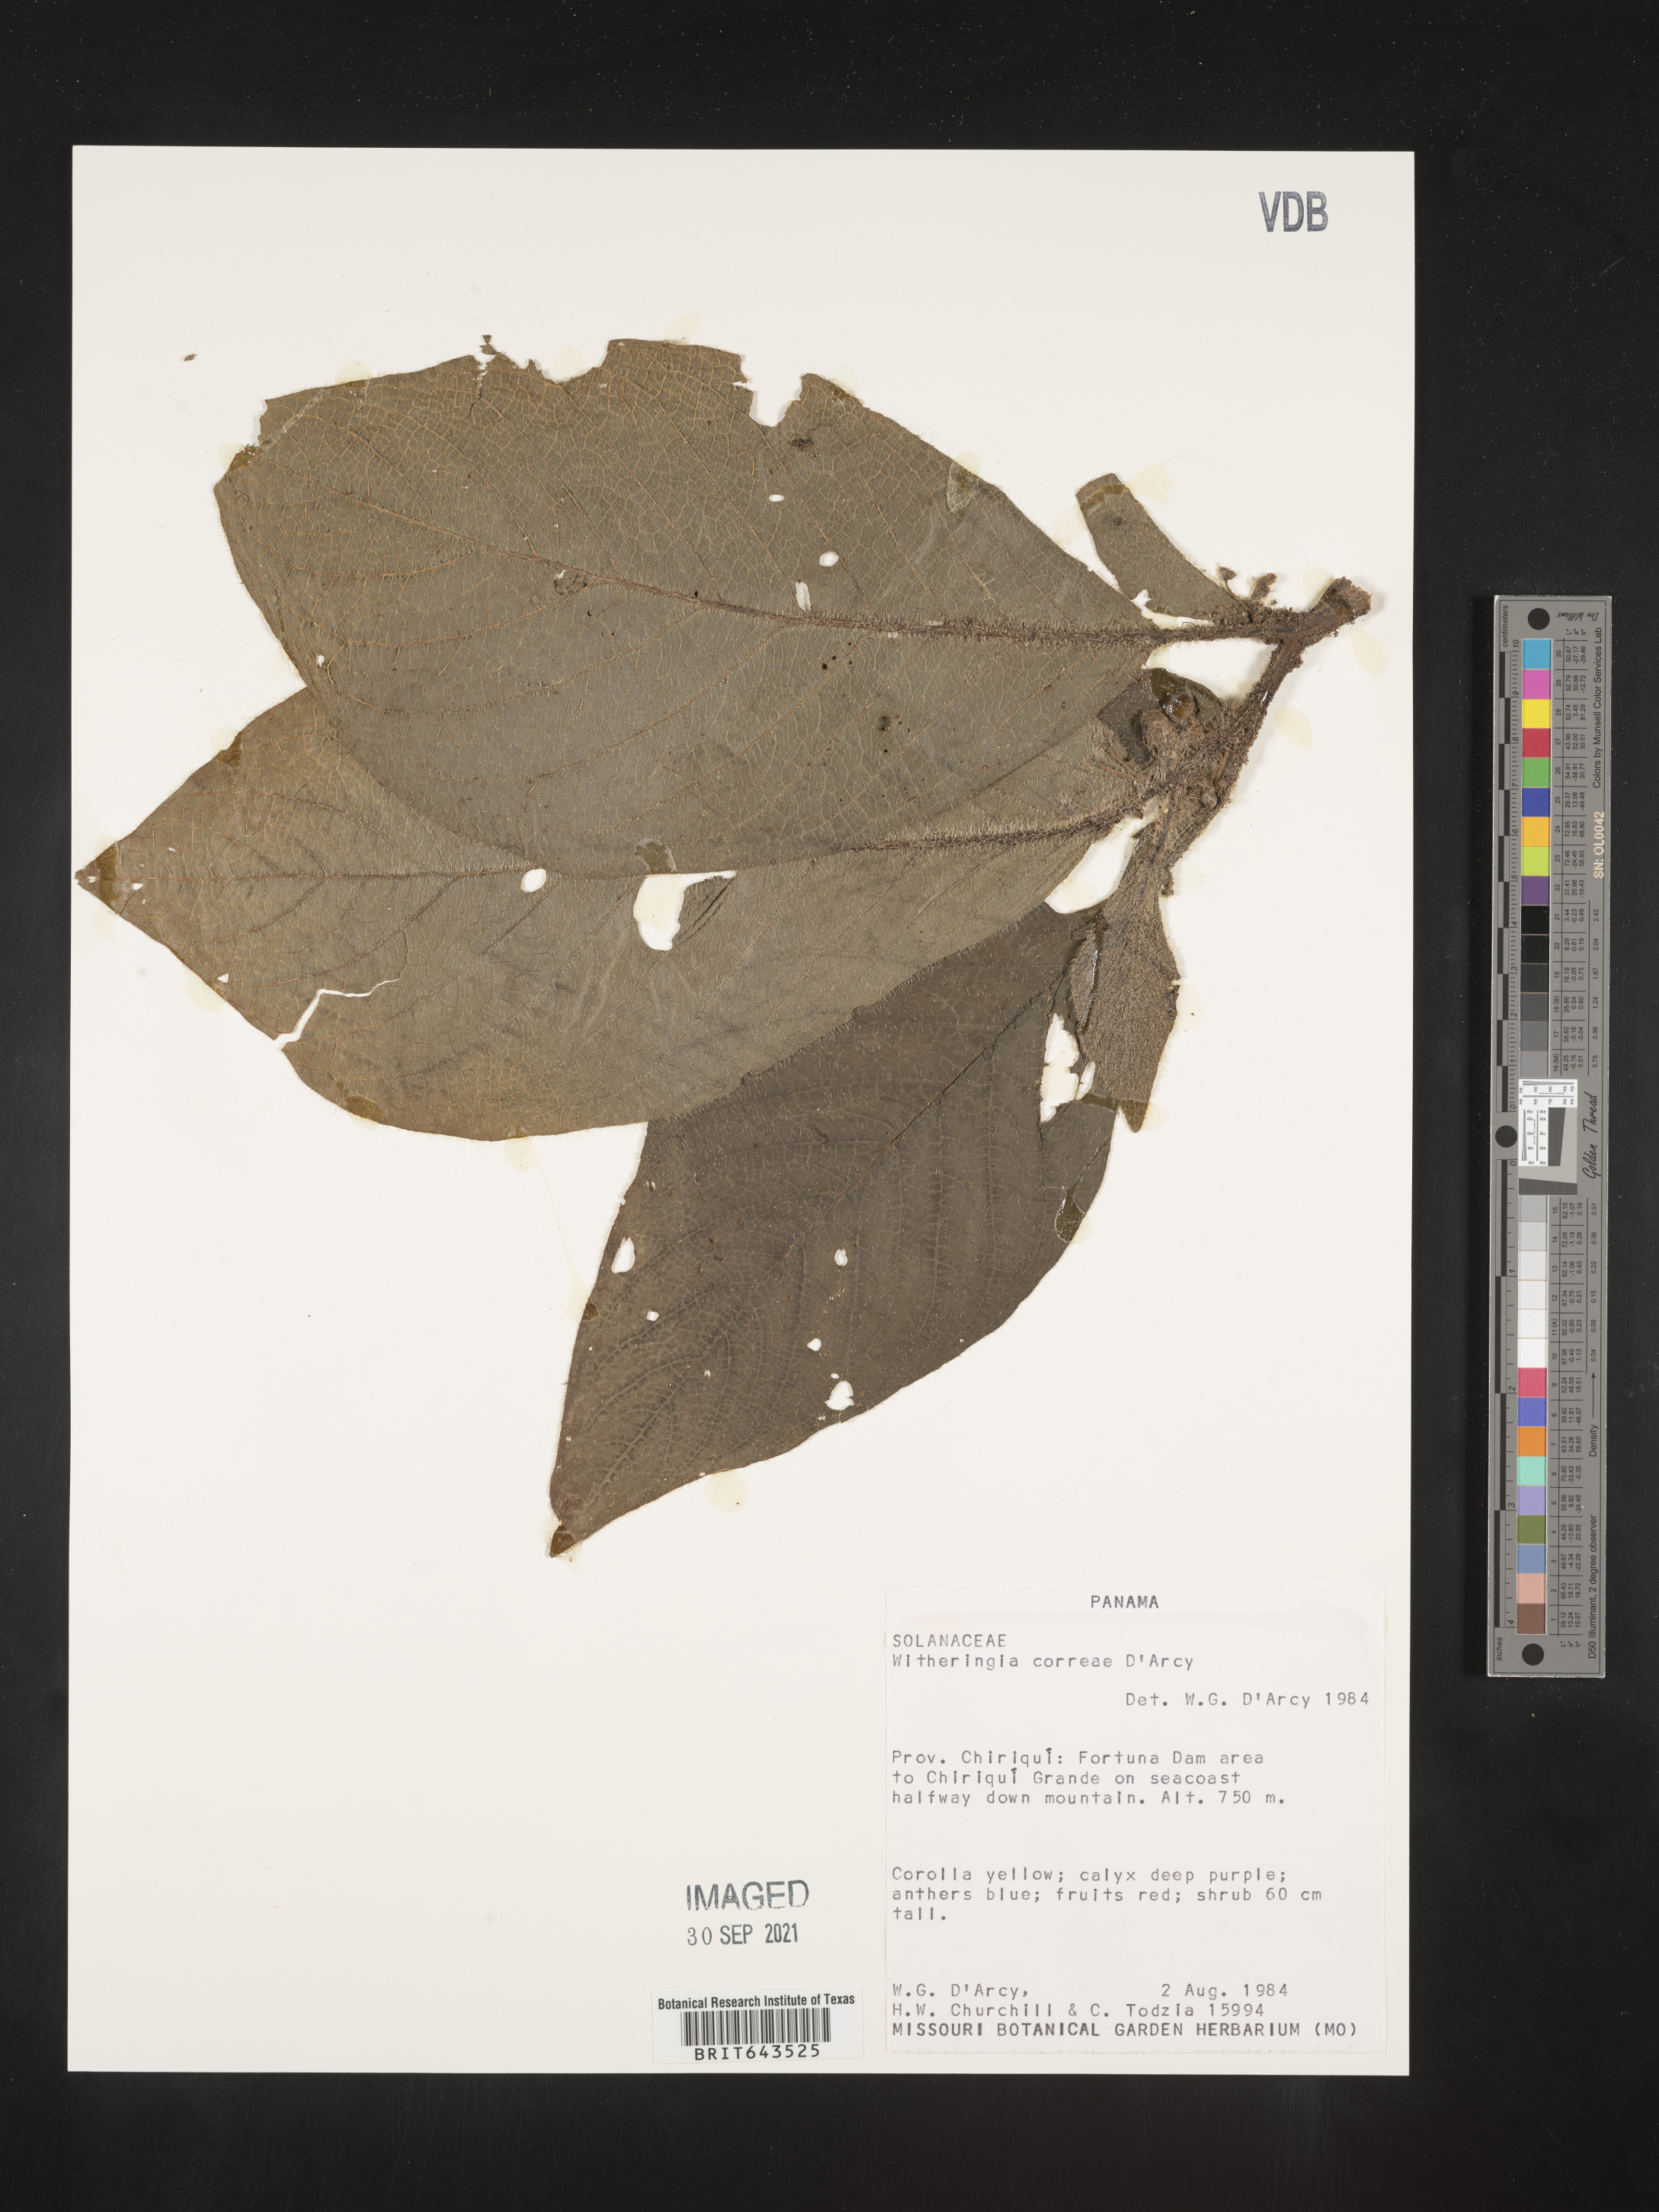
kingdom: Plantae
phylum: Tracheophyta
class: Magnoliopsida
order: Solanales
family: Solanaceae
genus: Witheringia
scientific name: Witheringia
